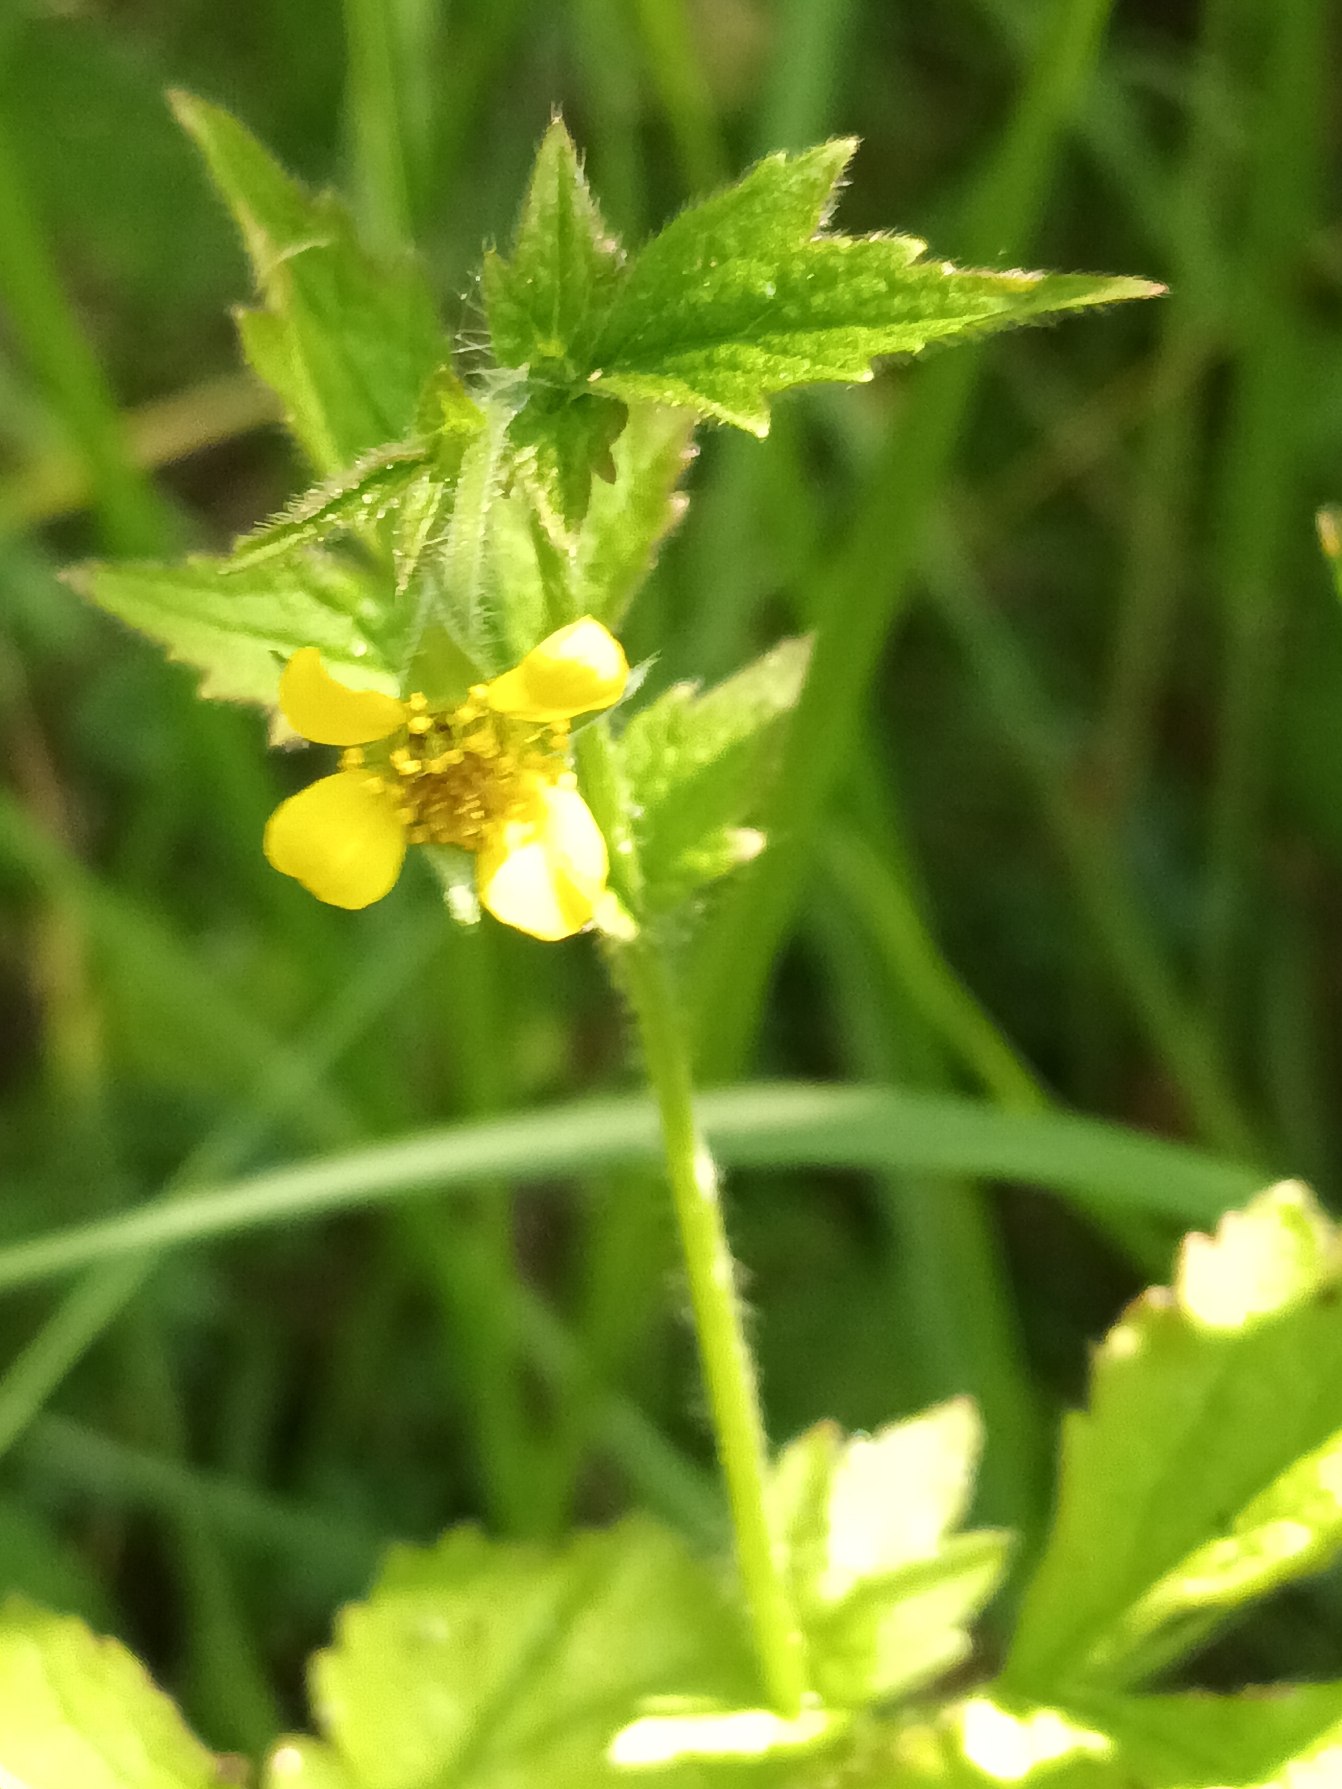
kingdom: Plantae
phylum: Tracheophyta
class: Magnoliopsida
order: Rosales
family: Rosaceae
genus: Geum
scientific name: Geum urbanum
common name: Feber-nellikerod
